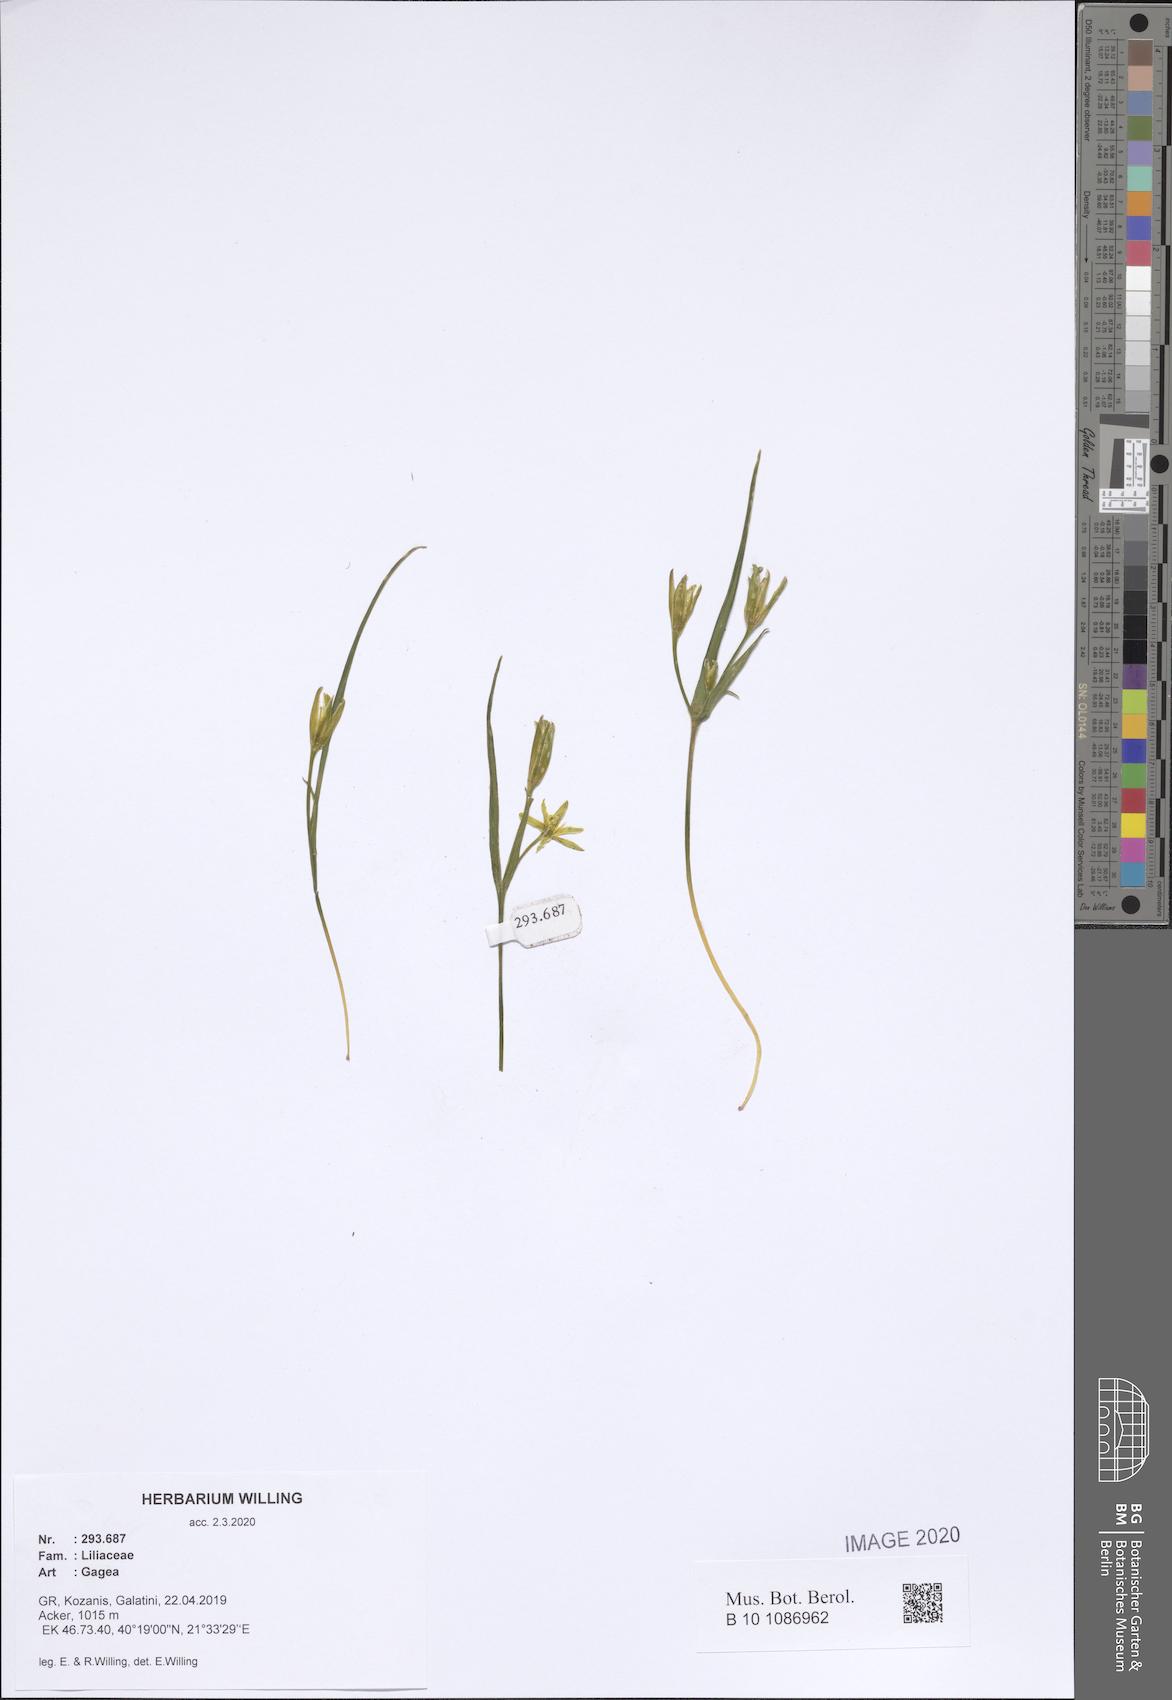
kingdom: Plantae
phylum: Tracheophyta
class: Liliopsida
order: Liliales
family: Liliaceae
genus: Gagea
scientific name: Gagea
